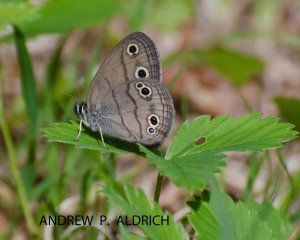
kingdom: Animalia
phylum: Arthropoda
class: Insecta
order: Lepidoptera
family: Nymphalidae
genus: Euptychia
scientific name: Euptychia cymela
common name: Little Wood Satyr
